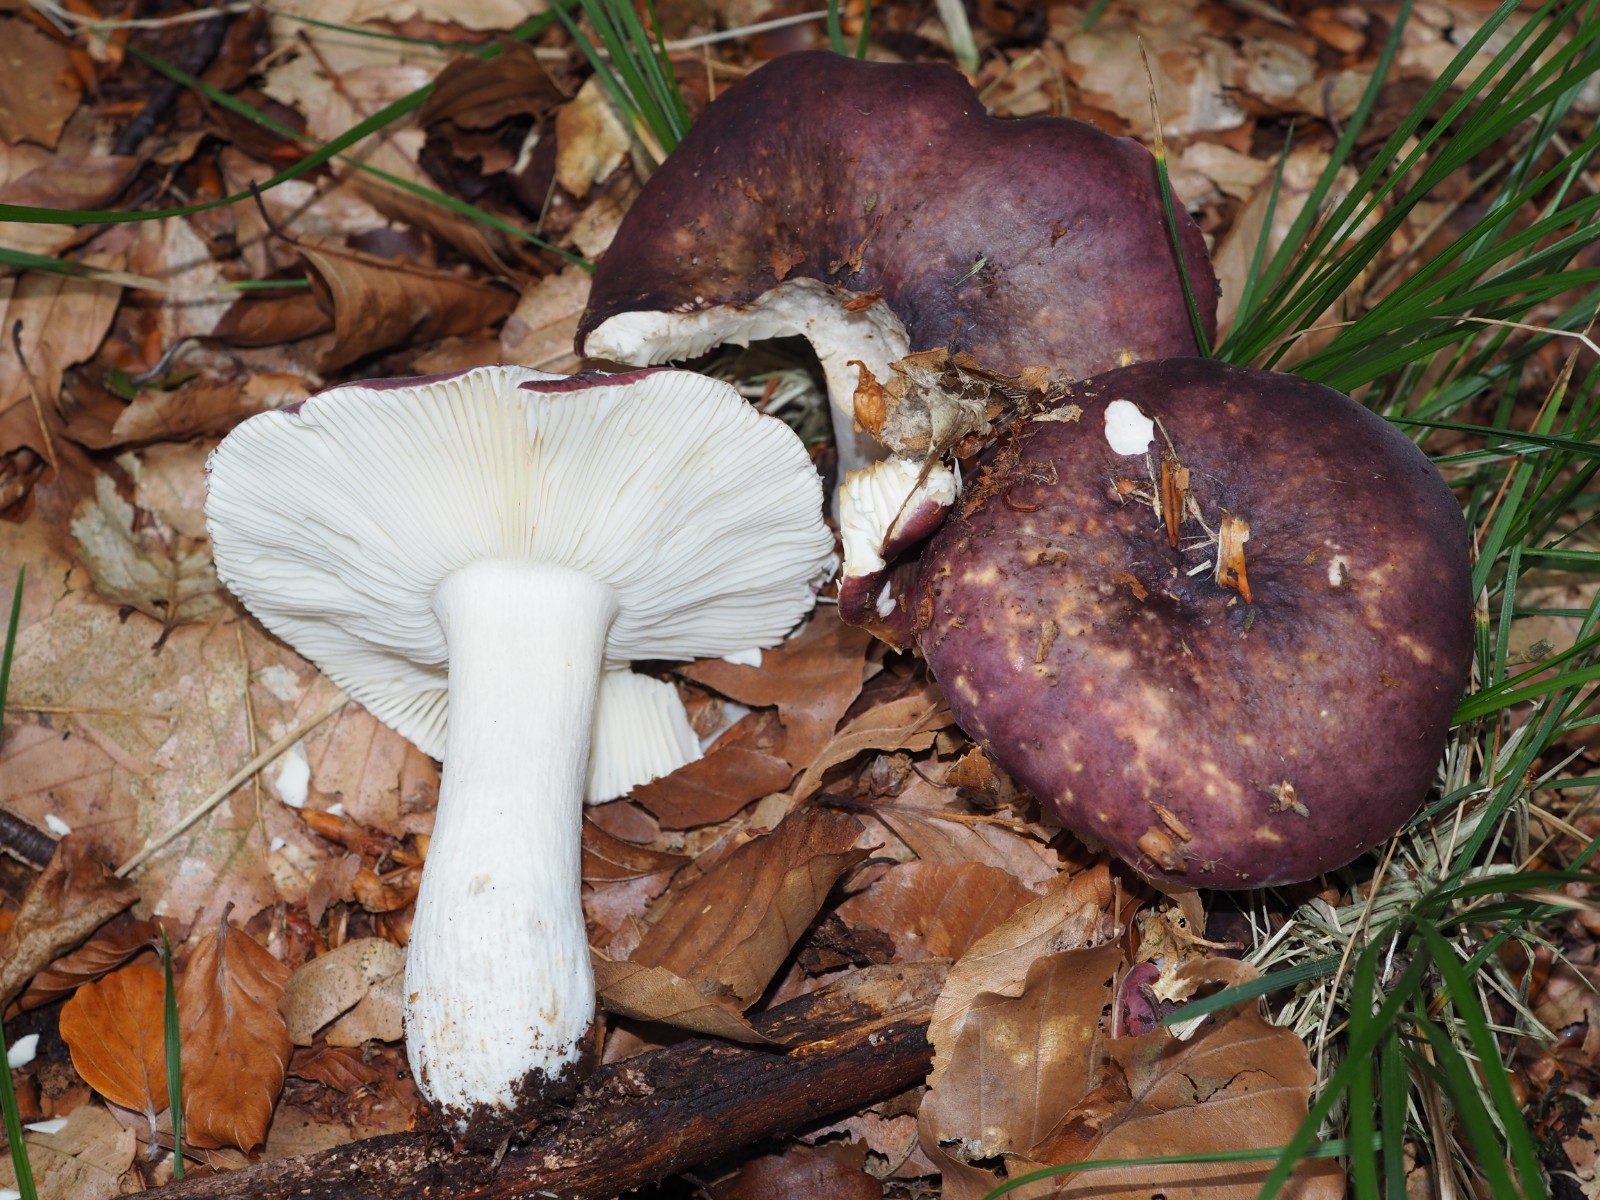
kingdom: Fungi
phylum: Basidiomycota
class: Agaricomycetes
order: Russulales
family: Russulaceae
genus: Russula
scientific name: Russula atropurpurea
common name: purpurbroget skørhat
